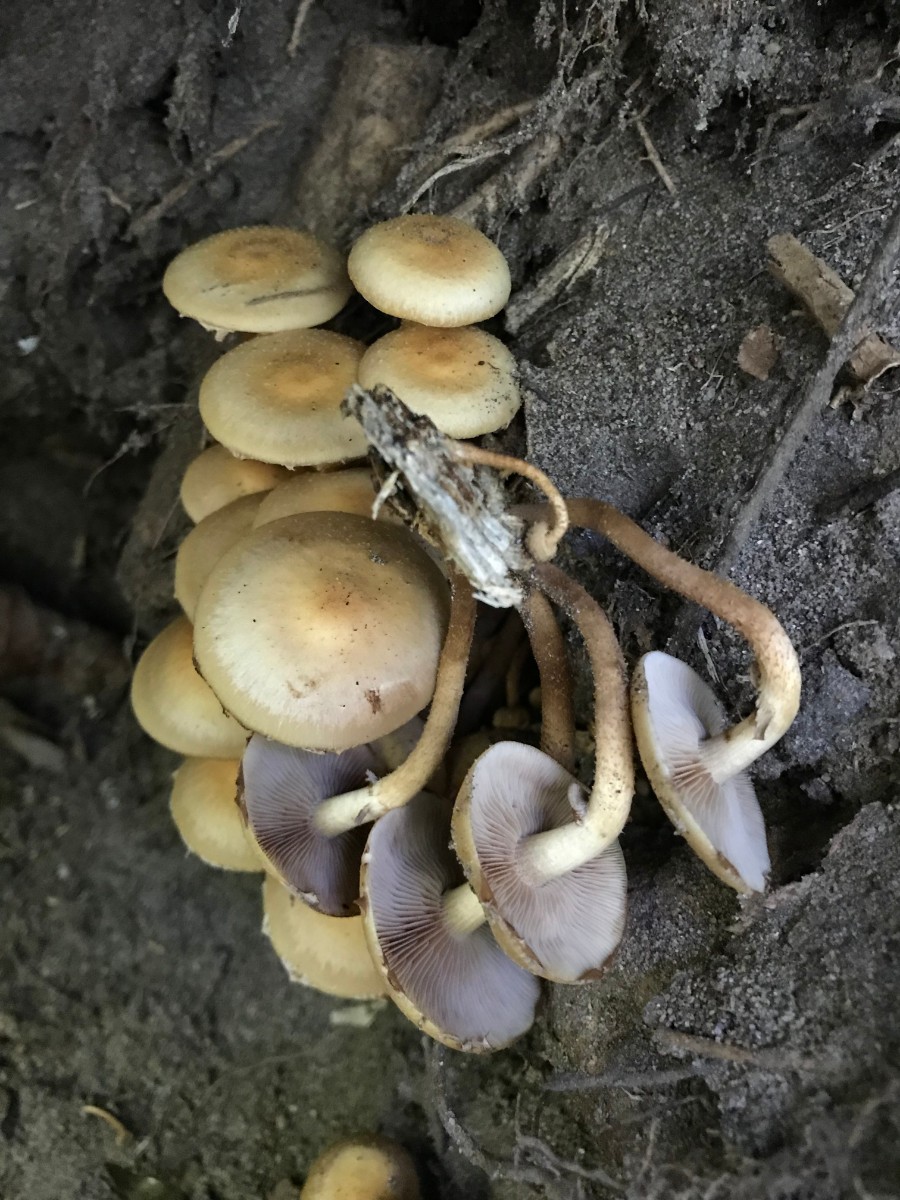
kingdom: Fungi
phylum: Basidiomycota
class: Agaricomycetes
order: Agaricales
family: Strophariaceae
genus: Kuehneromyces
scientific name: Kuehneromyces mutabilis
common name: foranderlig skælhat
